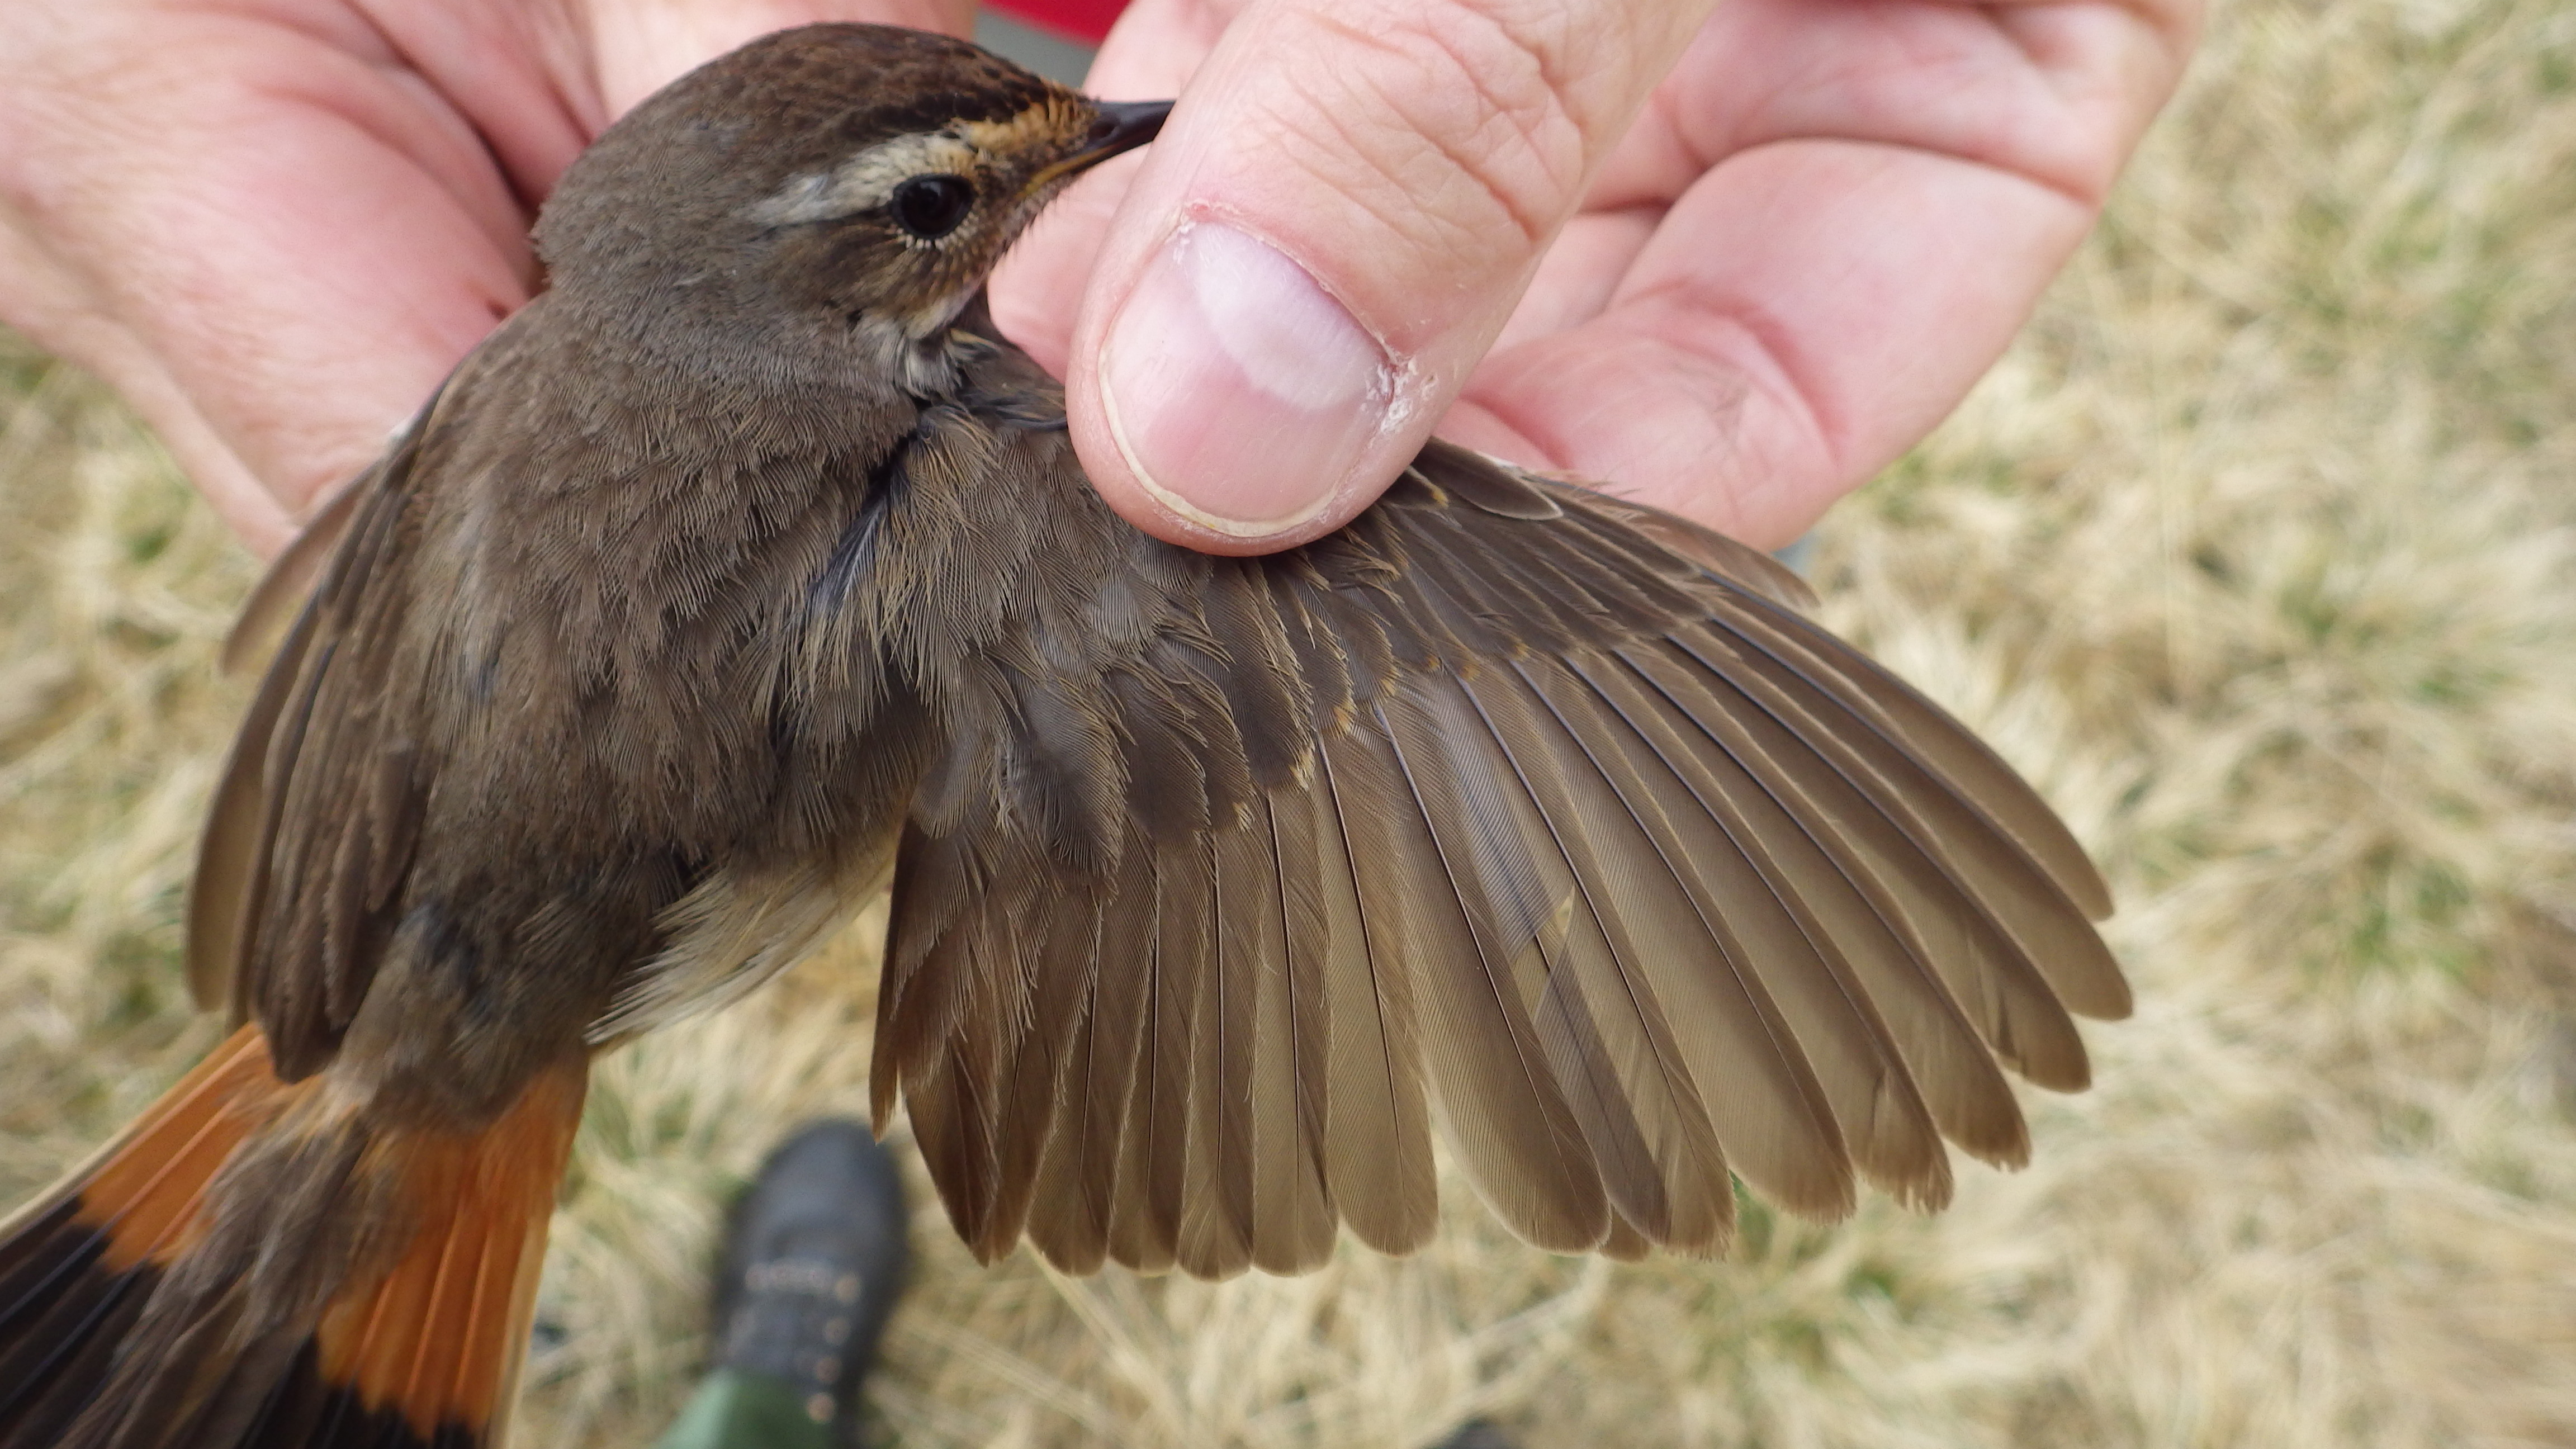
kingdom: Animalia
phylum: Chordata
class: Aves
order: Passeriformes
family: Muscicapidae
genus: Luscinia
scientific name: Luscinia svecica
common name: Bluethroat
